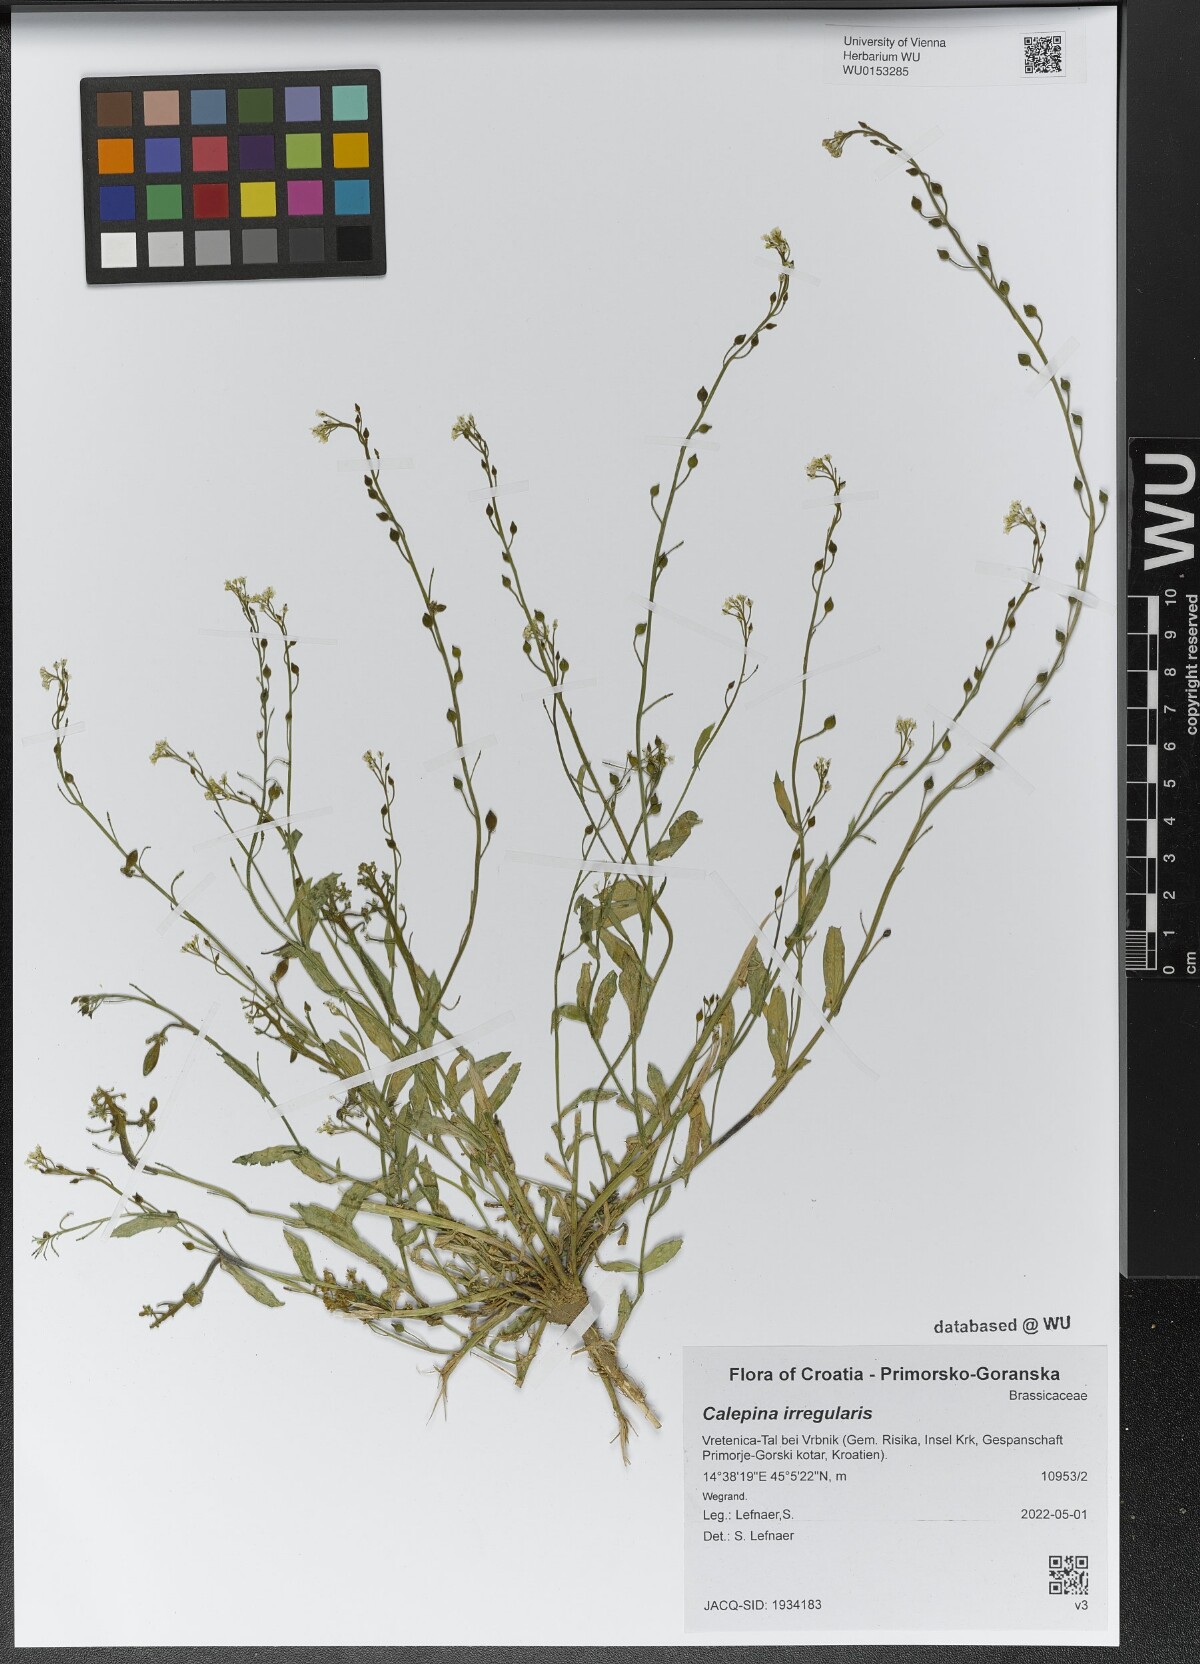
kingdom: Plantae
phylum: Tracheophyta
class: Magnoliopsida
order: Brassicales
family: Brassicaceae
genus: Calepina
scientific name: Calepina irregularis
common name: White ballmustard
